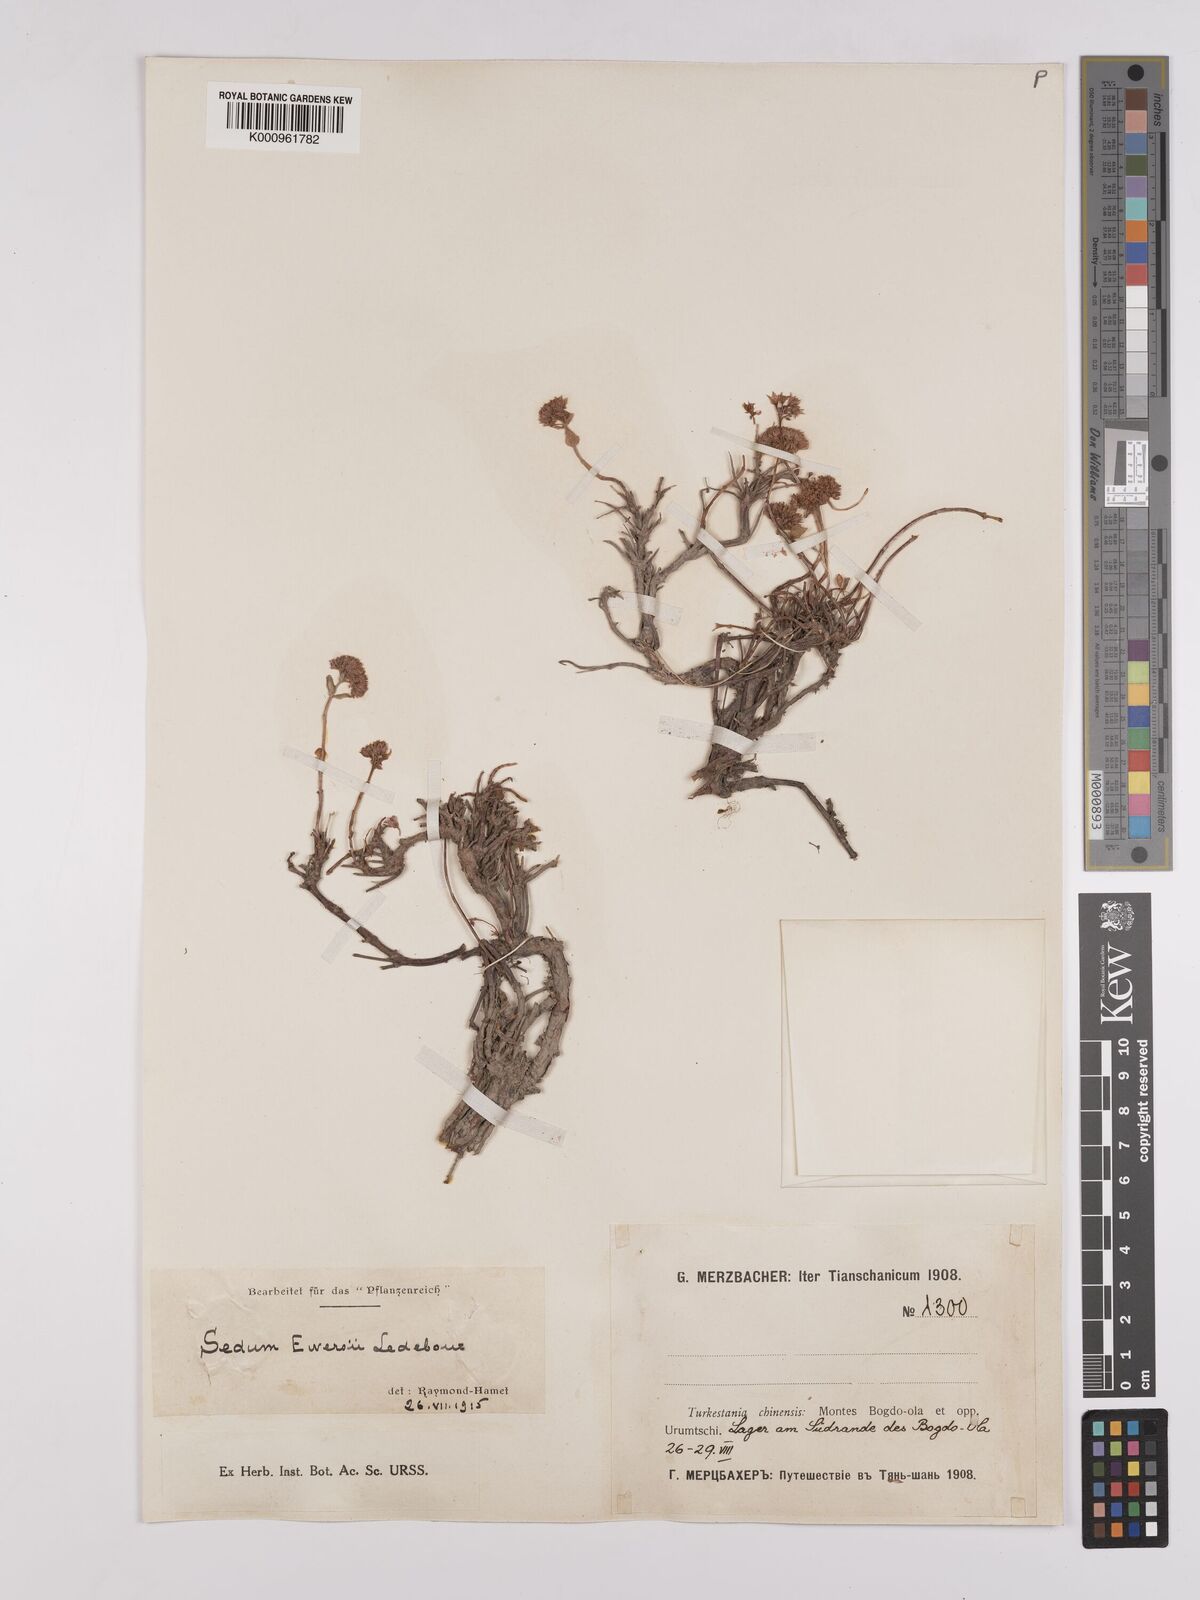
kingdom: Plantae
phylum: Tracheophyta
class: Magnoliopsida
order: Saxifragales
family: Crassulaceae
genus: Sedum
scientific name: Sedum
